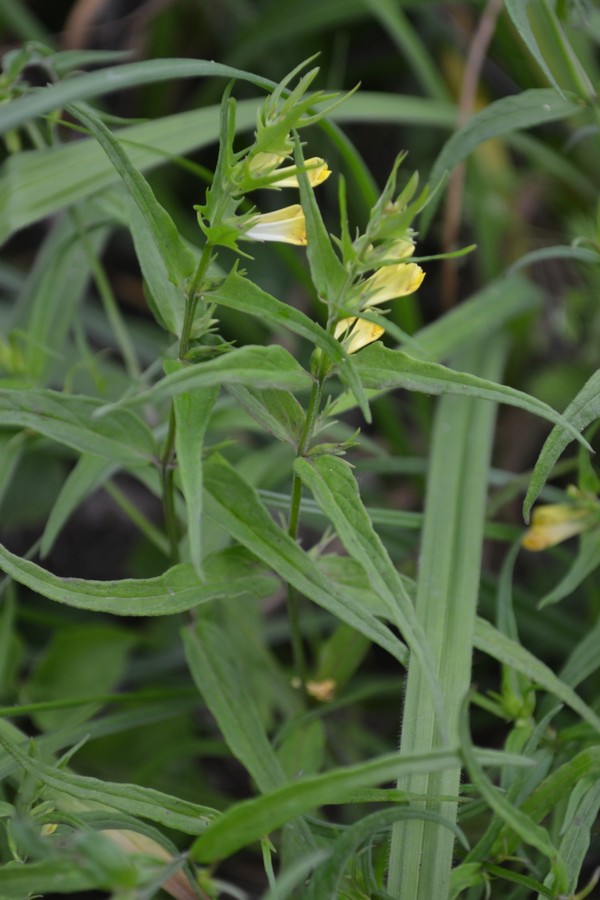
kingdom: Plantae
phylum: Tracheophyta
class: Magnoliopsida
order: Lamiales
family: Orobanchaceae
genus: Melampyrum
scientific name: Melampyrum pratense
